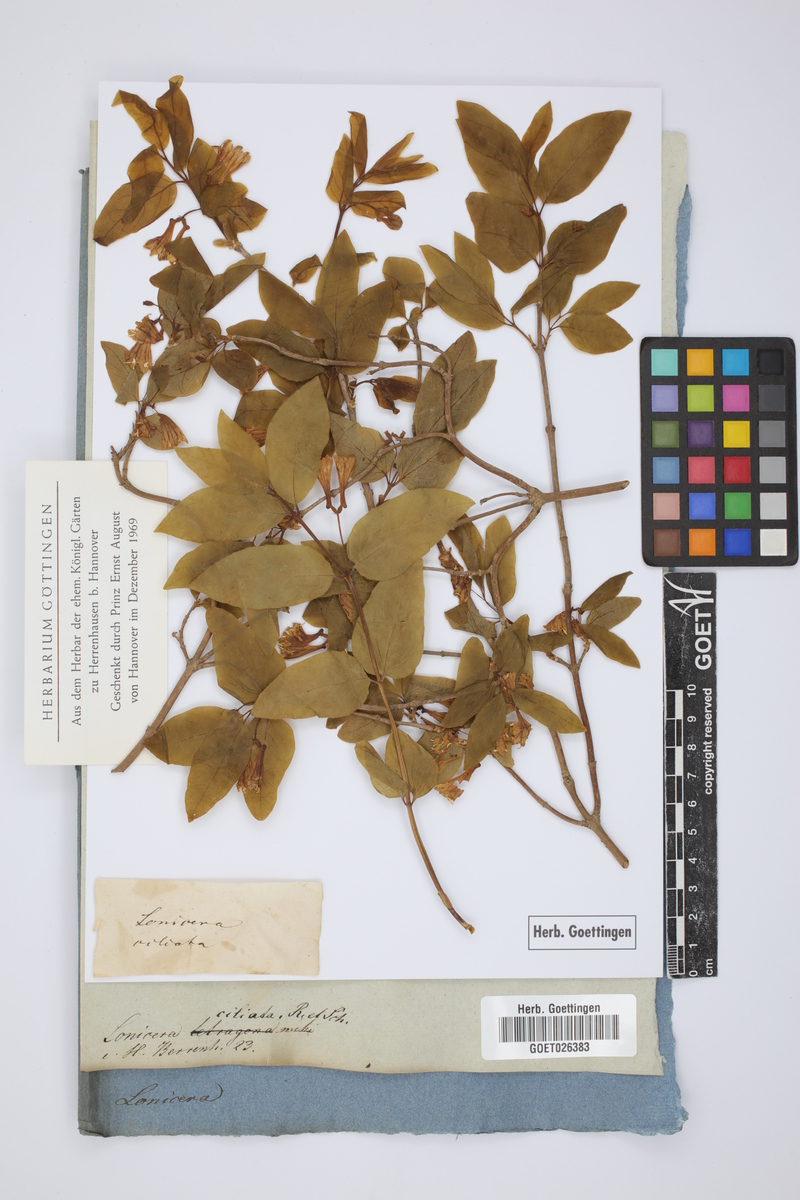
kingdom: Plantae
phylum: Tracheophyta
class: Magnoliopsida
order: Dipsacales
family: Caprifoliaceae
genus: Lonicera
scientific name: Lonicera canadensis
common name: American fly-honeysuckle
